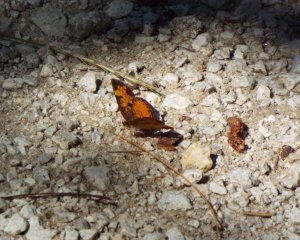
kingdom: Animalia
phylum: Arthropoda
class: Insecta
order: Lepidoptera
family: Nymphalidae
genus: Phyciodes
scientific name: Phyciodes tharos
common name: Northern Crescent
